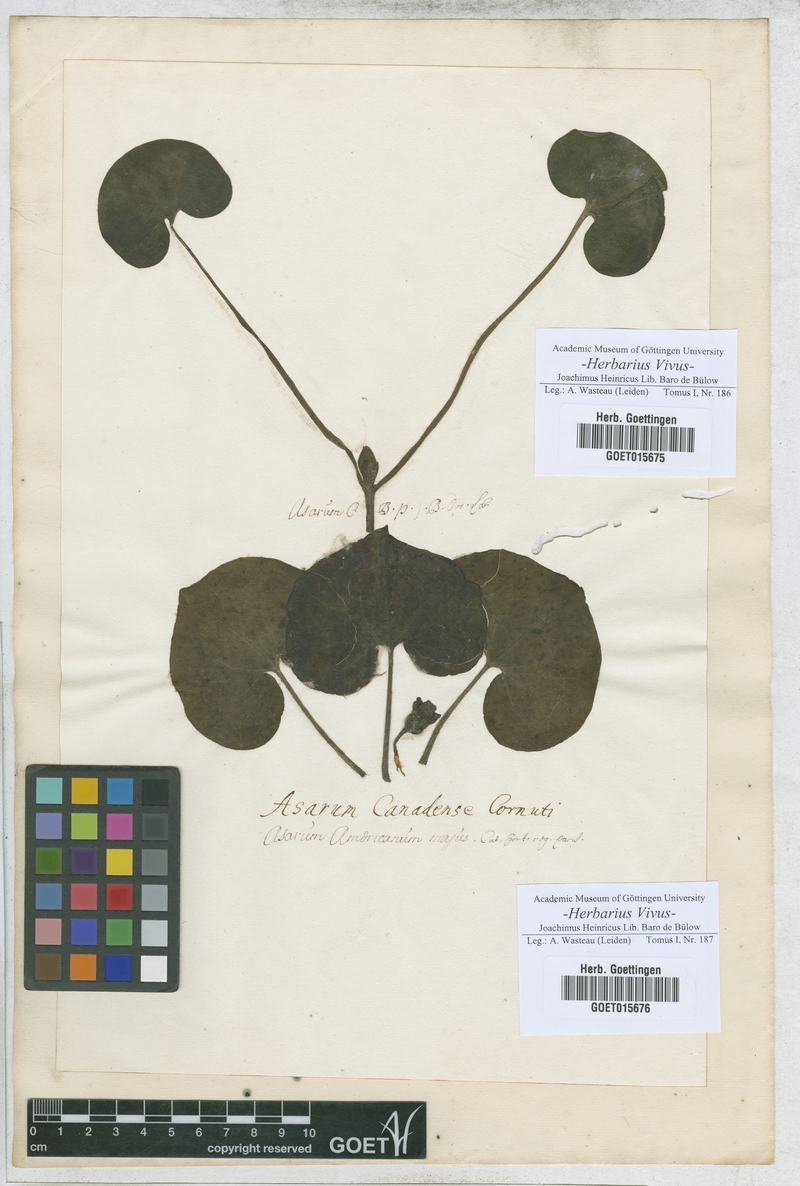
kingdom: Plantae
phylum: Tracheophyta
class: Magnoliopsida
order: Piperales
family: Aristolochiaceae
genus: Asarum
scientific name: Asarum europaeum
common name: Asarabacca
